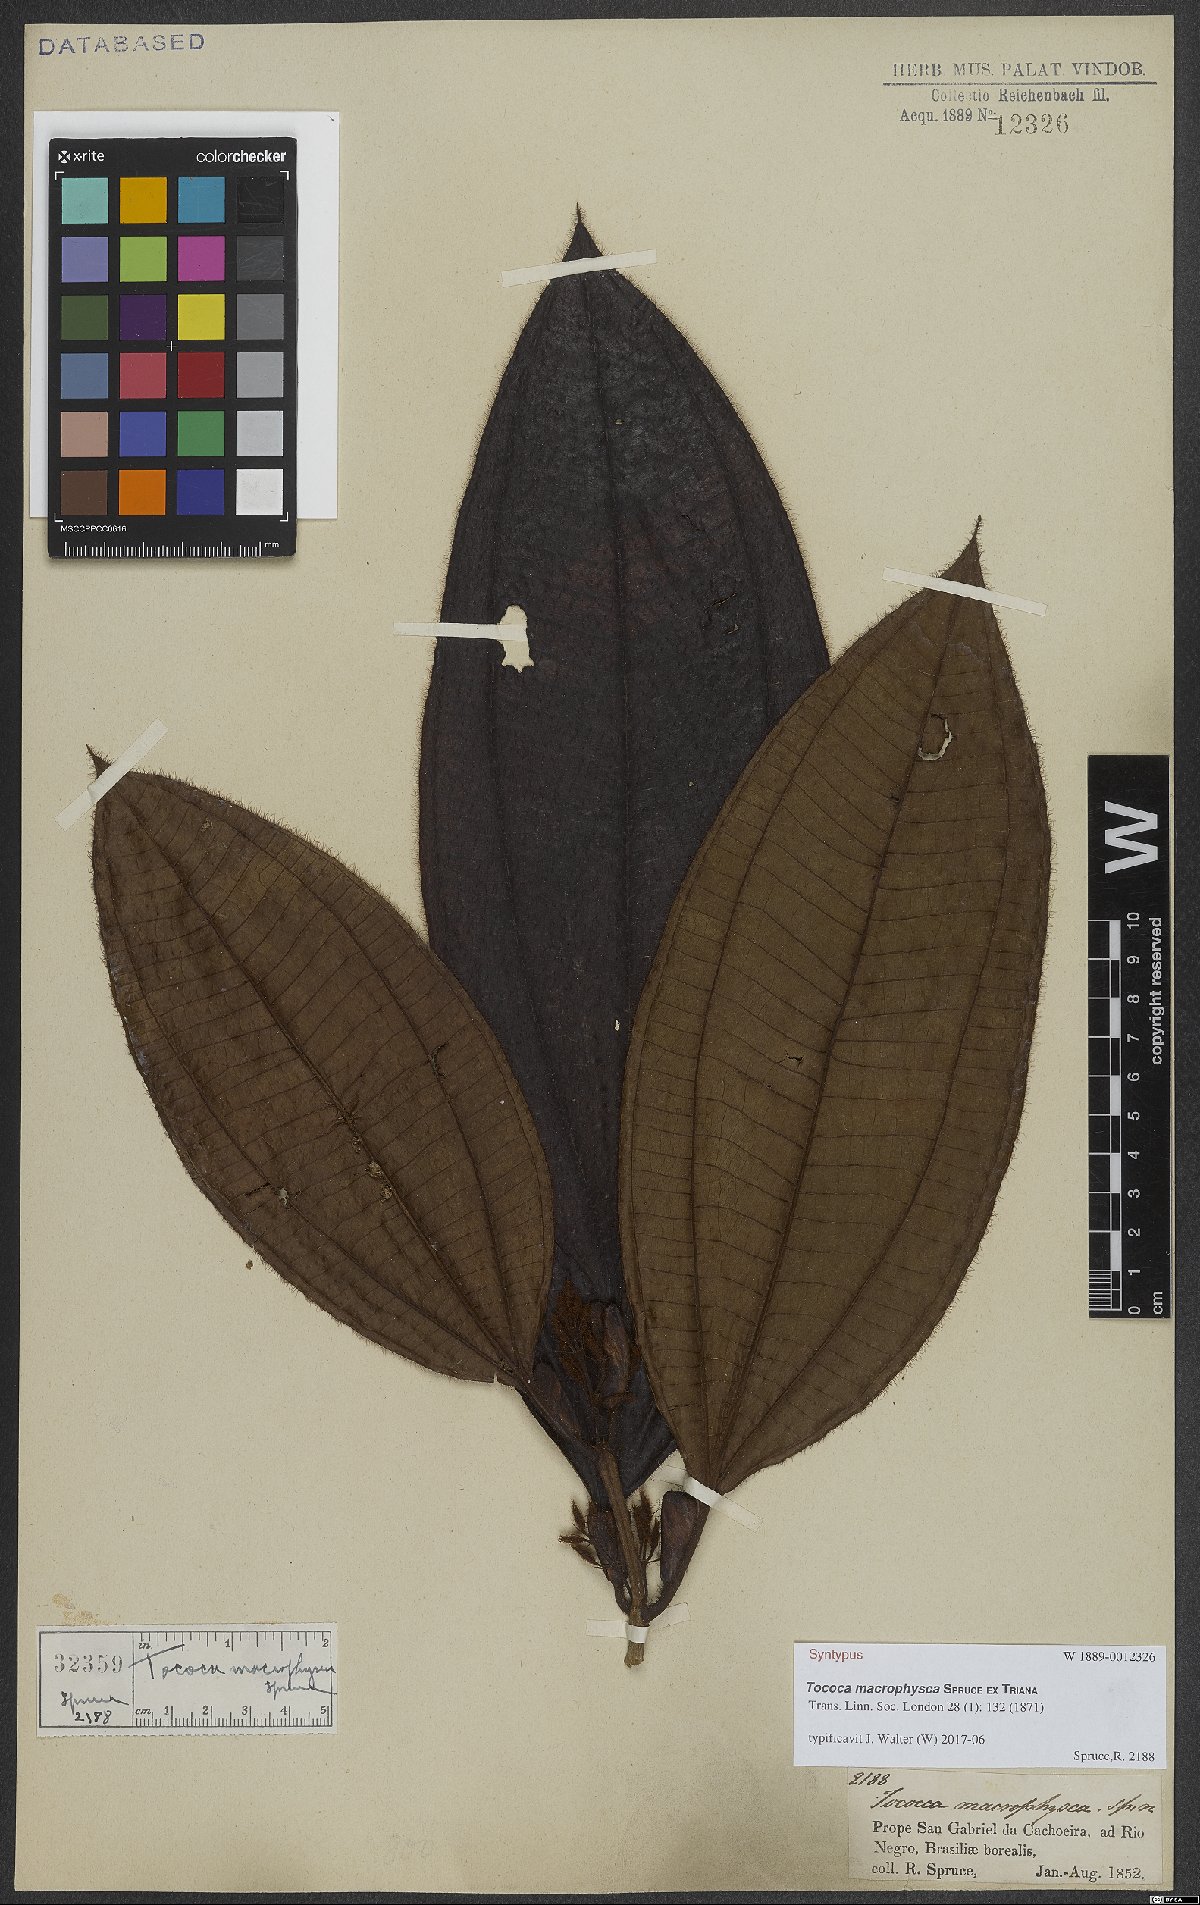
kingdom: Plantae
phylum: Tracheophyta
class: Magnoliopsida
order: Myrtales
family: Melastomataceae
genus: Miconia
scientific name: Miconia macrophysca
